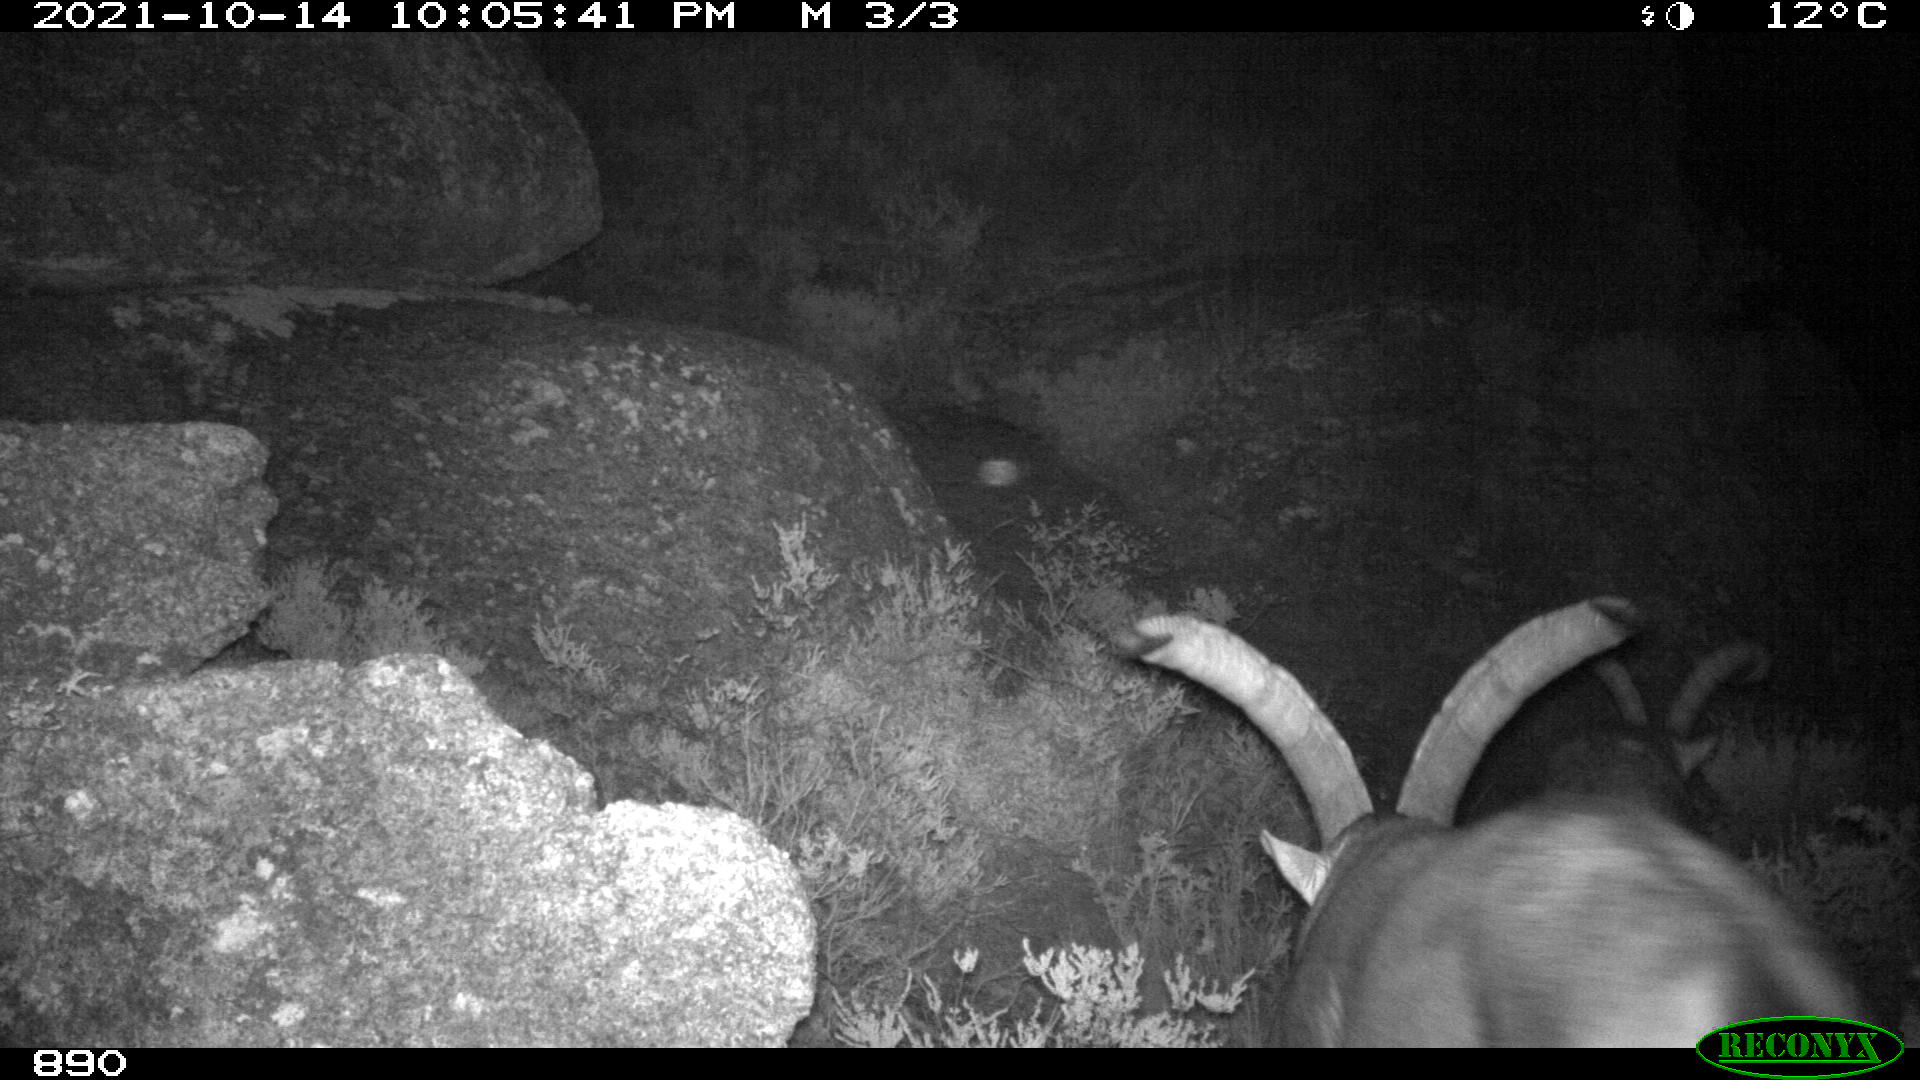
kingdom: Animalia
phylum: Chordata
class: Mammalia
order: Artiodactyla
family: Bovidae
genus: Capra
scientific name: Capra pyrenaica
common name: Spanish ibex
